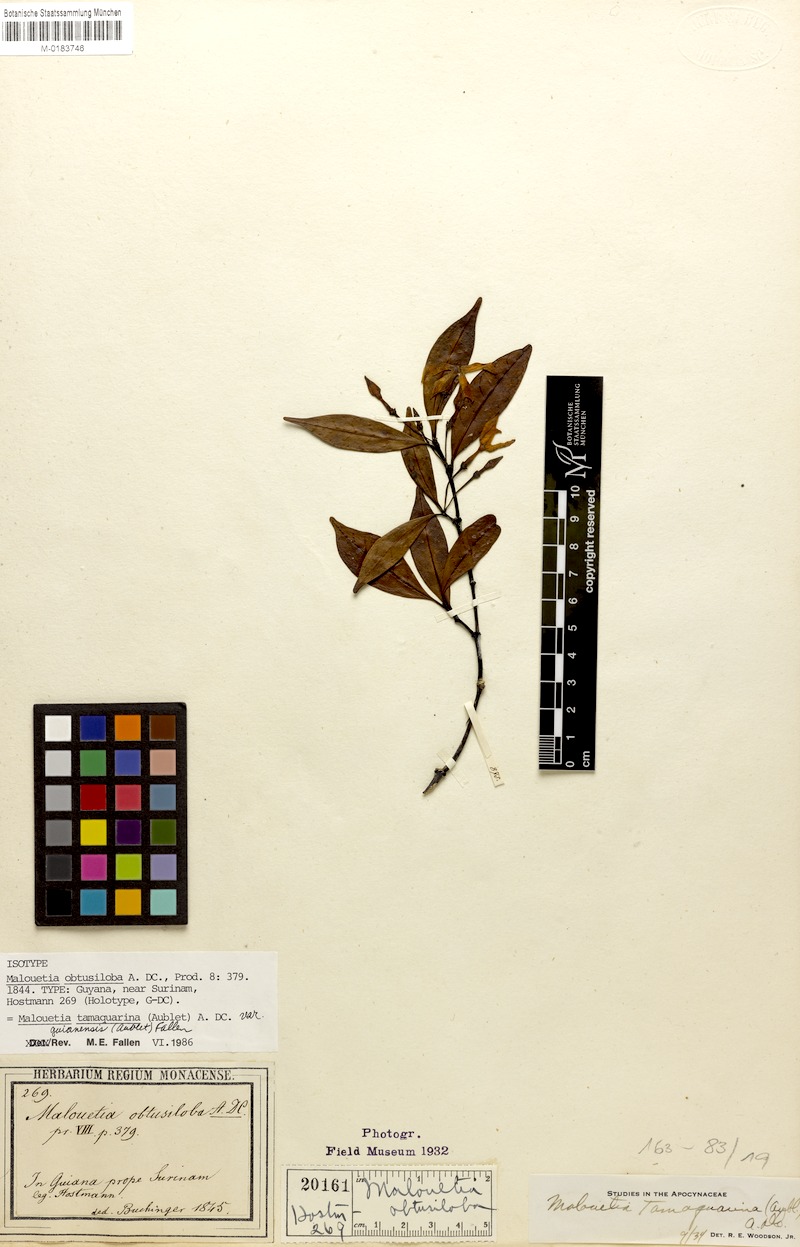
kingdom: Plantae
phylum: Tracheophyta
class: Magnoliopsida
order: Gentianales
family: Apocynaceae
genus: Malouetia
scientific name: Malouetia tamaquarina
